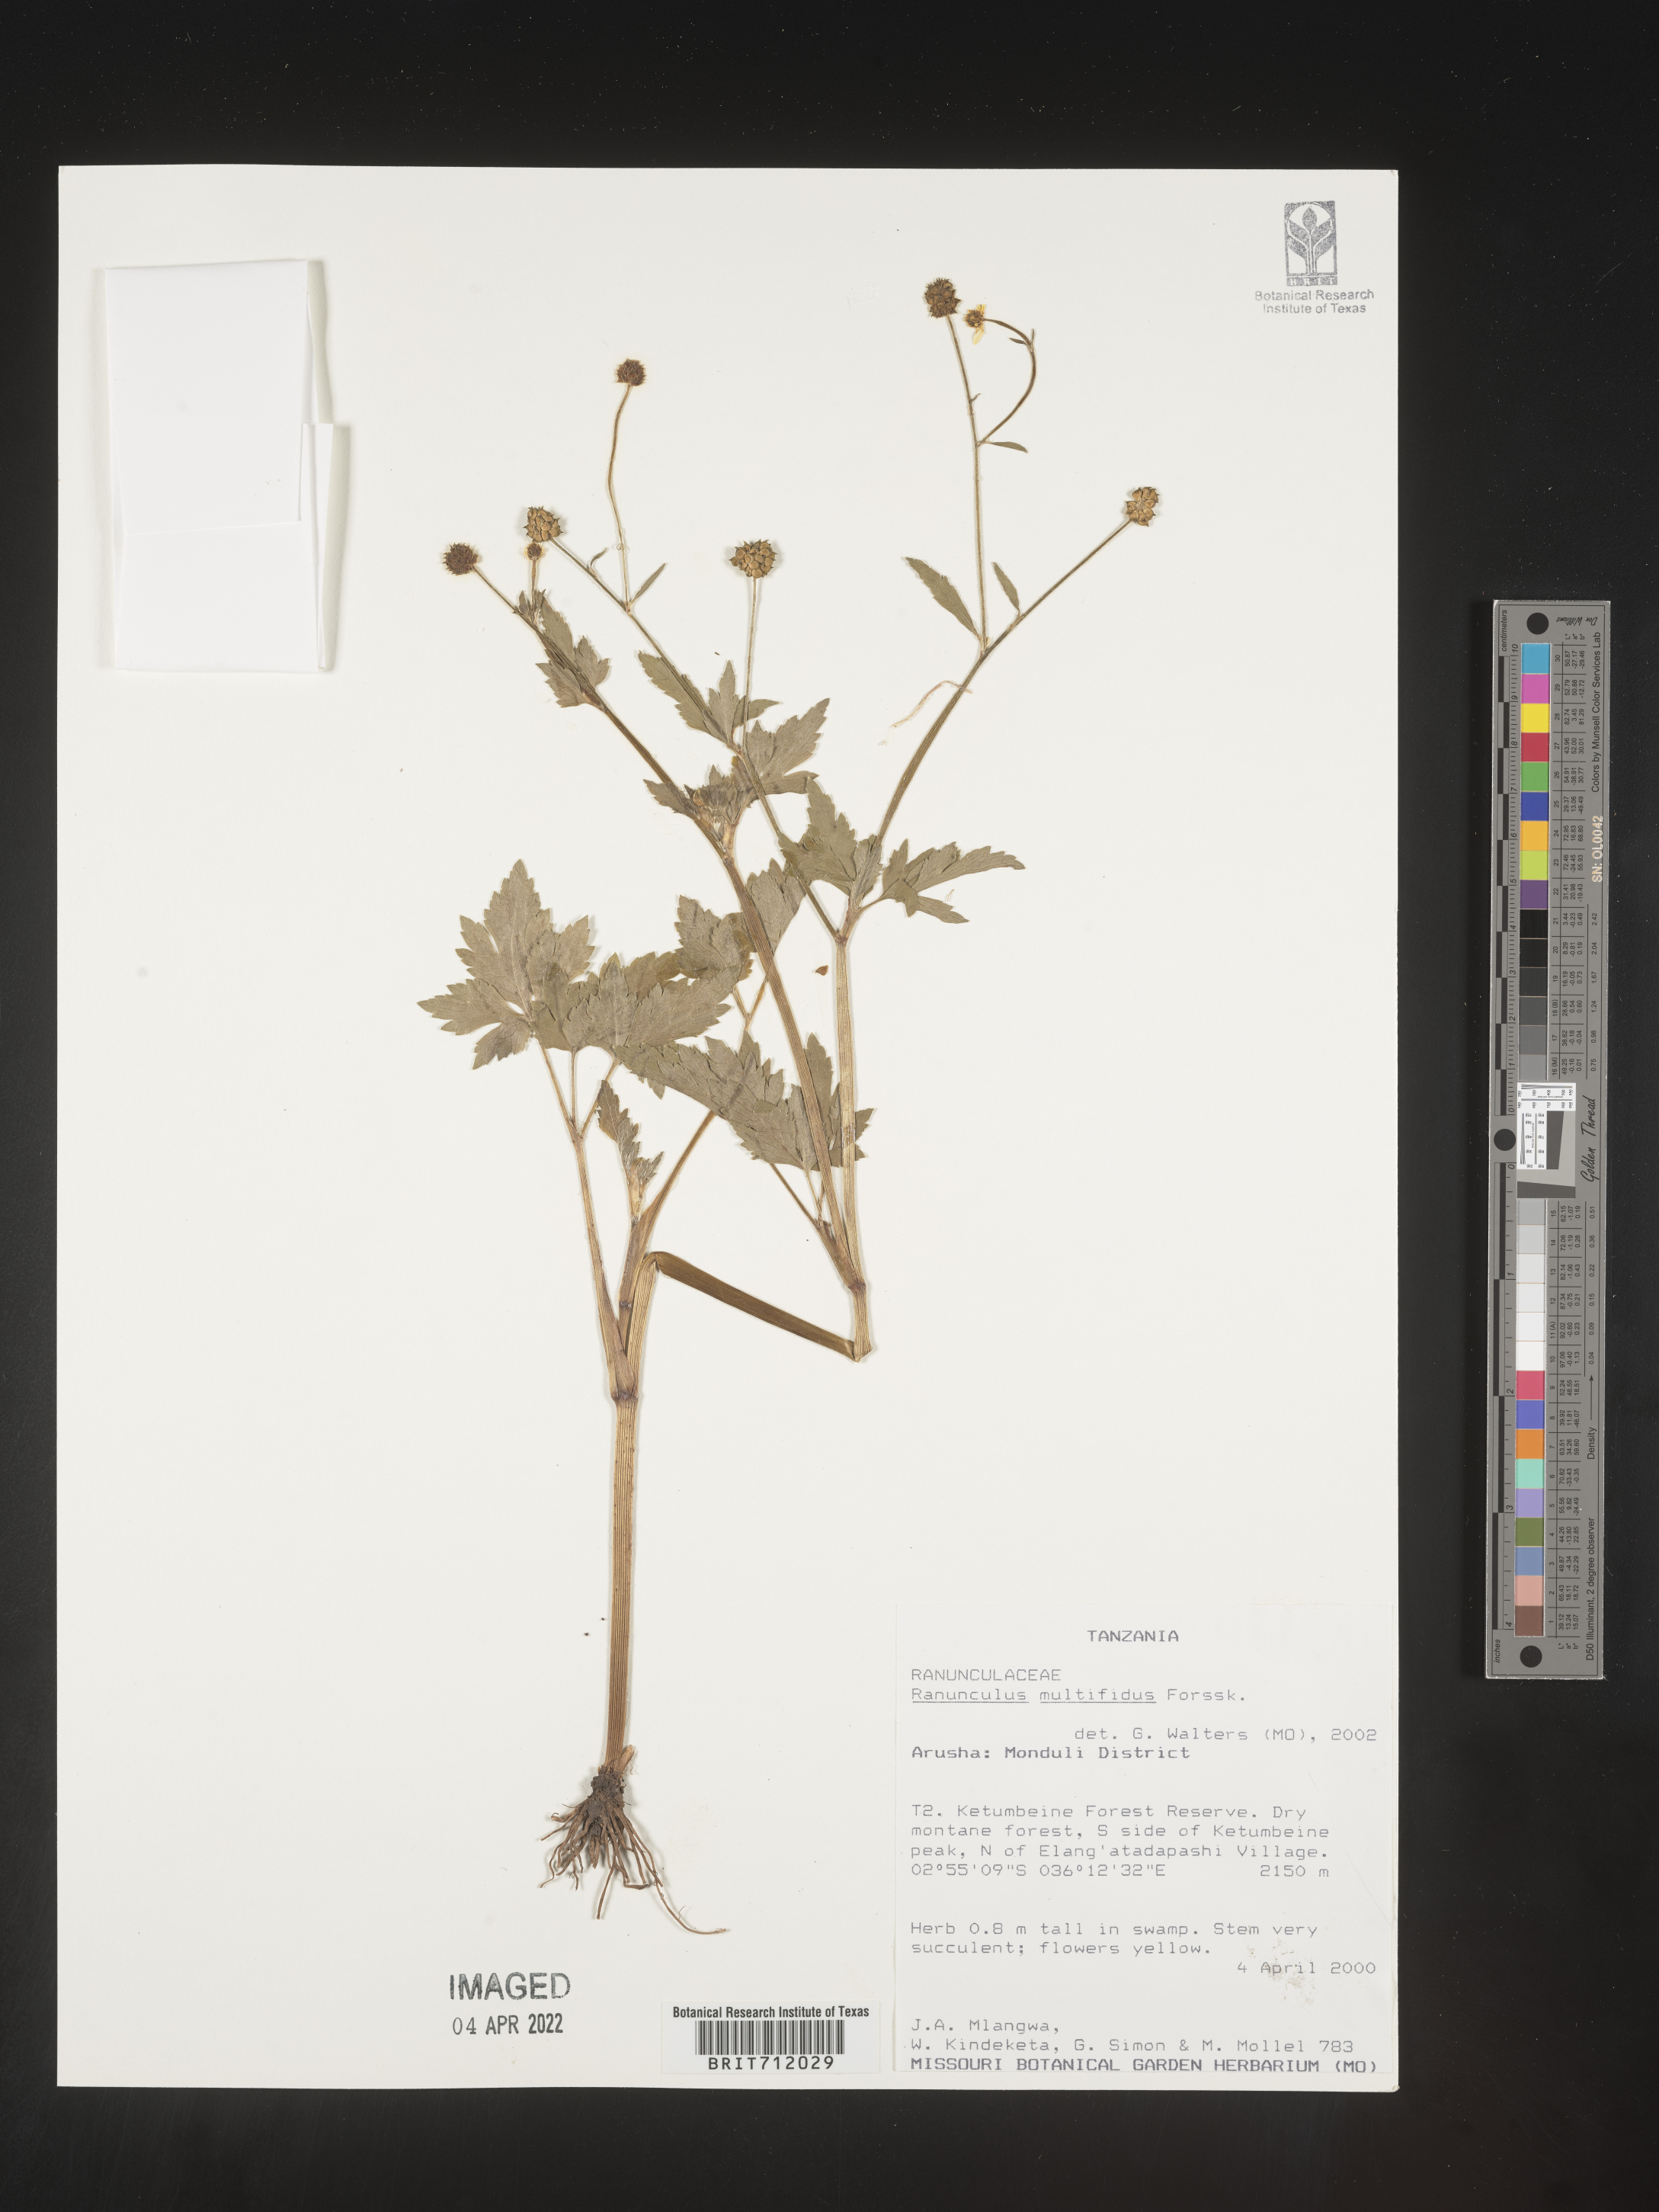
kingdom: Plantae
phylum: Tracheophyta
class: Magnoliopsida
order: Ranunculales
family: Ranunculaceae
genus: Ranunculus
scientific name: Ranunculus
